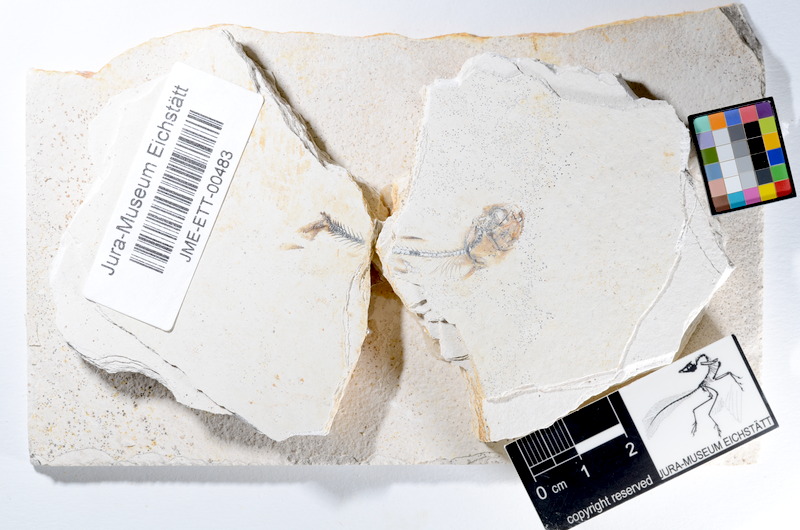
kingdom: Animalia
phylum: Chordata
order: Salmoniformes
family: Orthogonikleithridae
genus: Orthogonikleithrus
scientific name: Orthogonikleithrus hoelli
